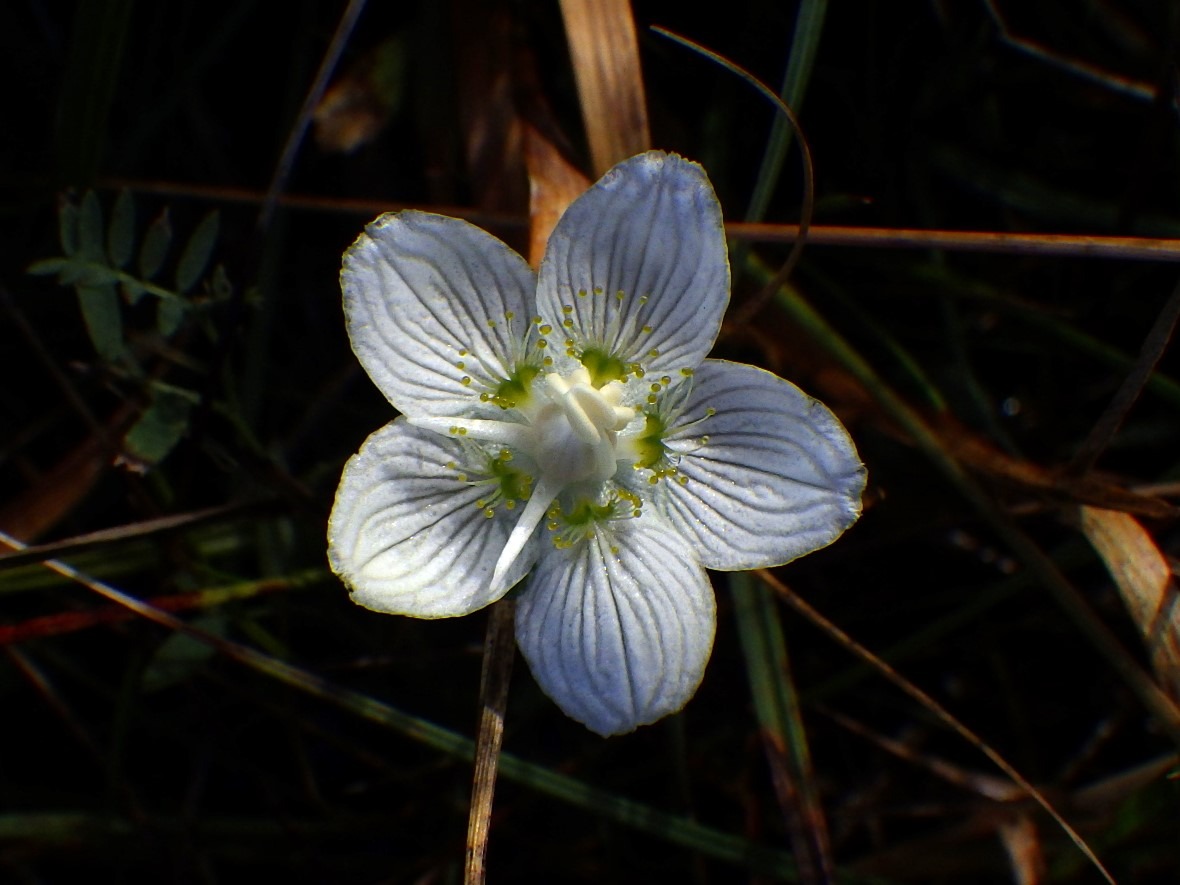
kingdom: Plantae
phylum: Tracheophyta
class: Magnoliopsida
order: Celastrales
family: Parnassiaceae
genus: Parnassia
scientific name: Parnassia palustris
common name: Leverurt
